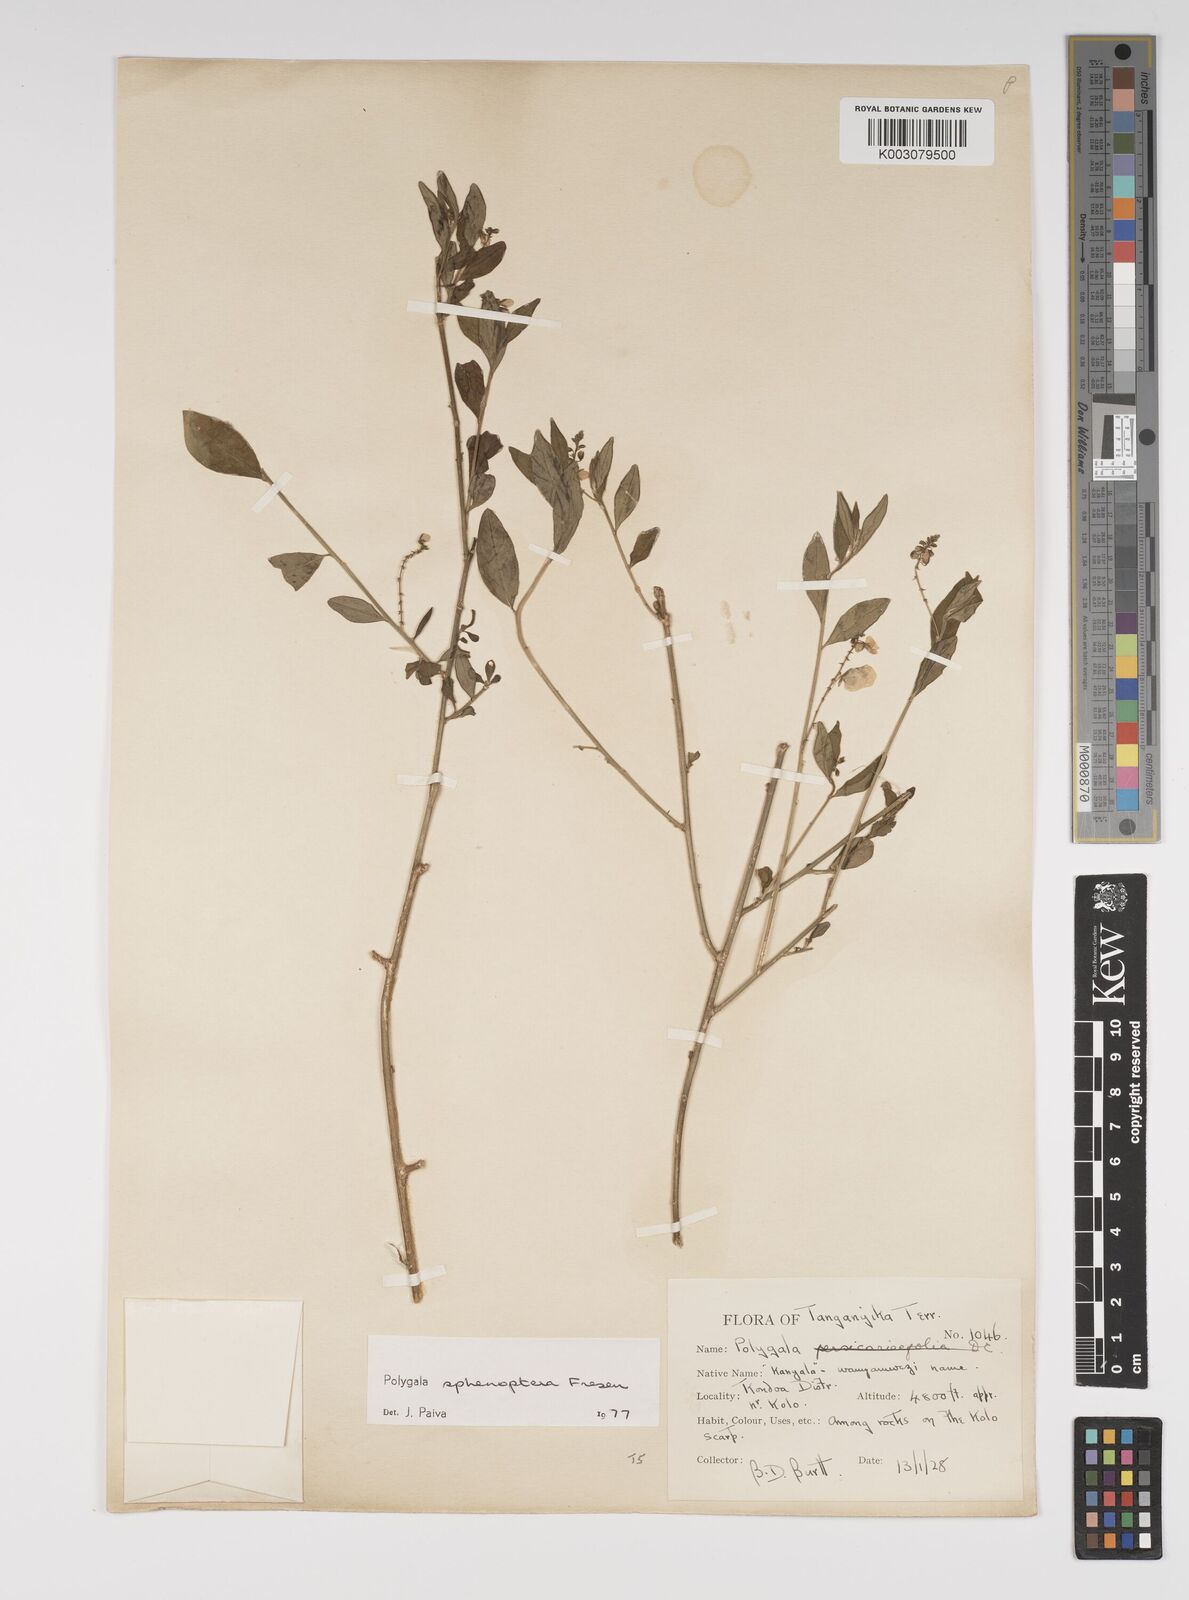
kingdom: Plantae
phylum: Tracheophyta
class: Magnoliopsida
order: Fabales
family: Polygalaceae
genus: Polygala
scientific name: Polygala sphenoptera
